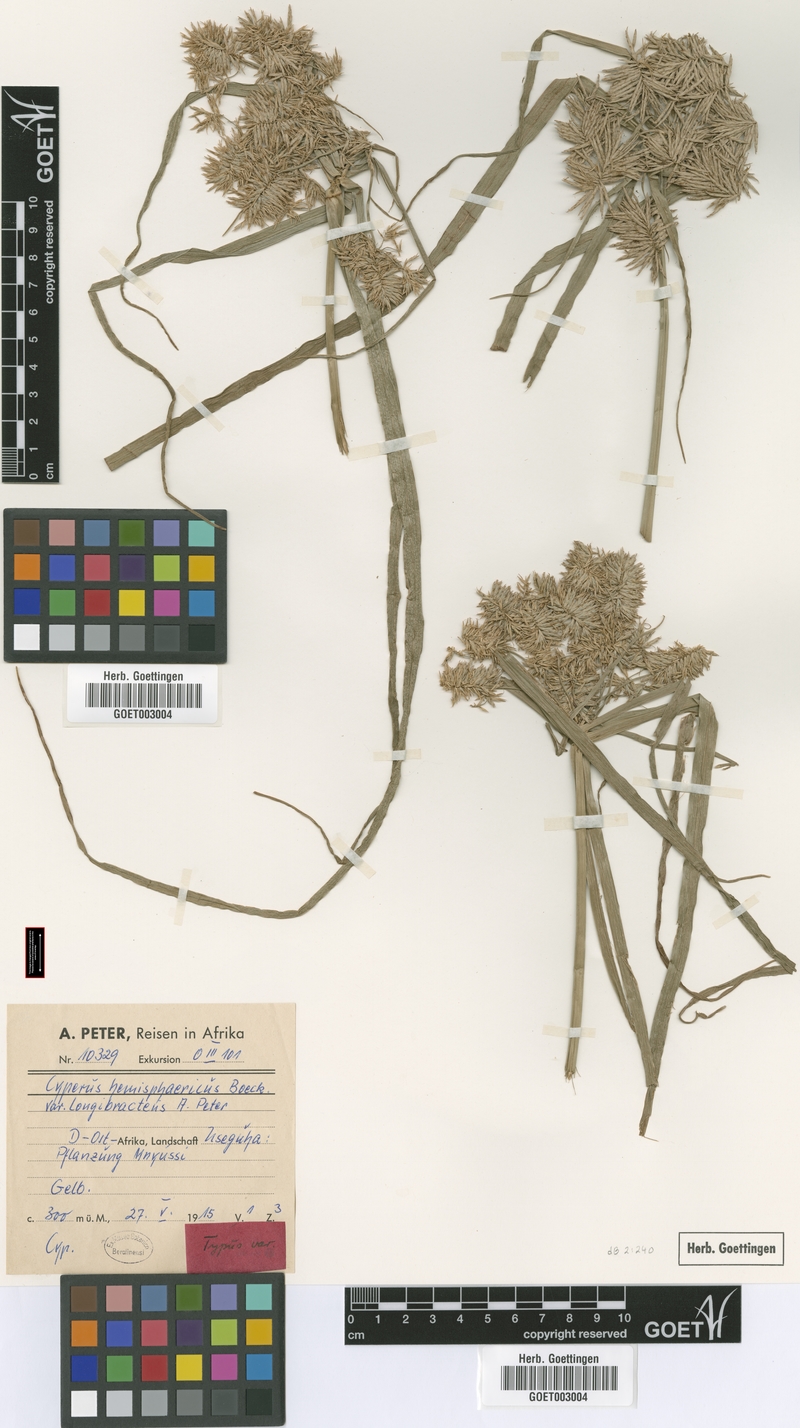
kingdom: Plantae
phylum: Tracheophyta
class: Liliopsida
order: Poales
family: Cyperaceae
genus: Cyperus
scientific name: Cyperus hemisphaericus
